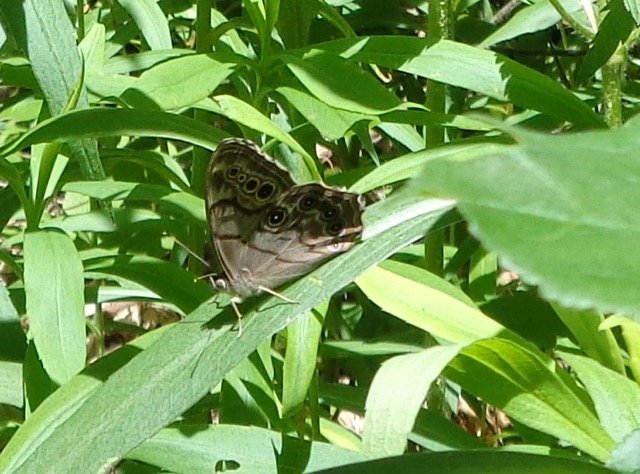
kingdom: Animalia
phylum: Arthropoda
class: Insecta
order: Lepidoptera
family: Nymphalidae
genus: Lethe
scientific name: Lethe anthedon
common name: Northern Pearly-Eye
